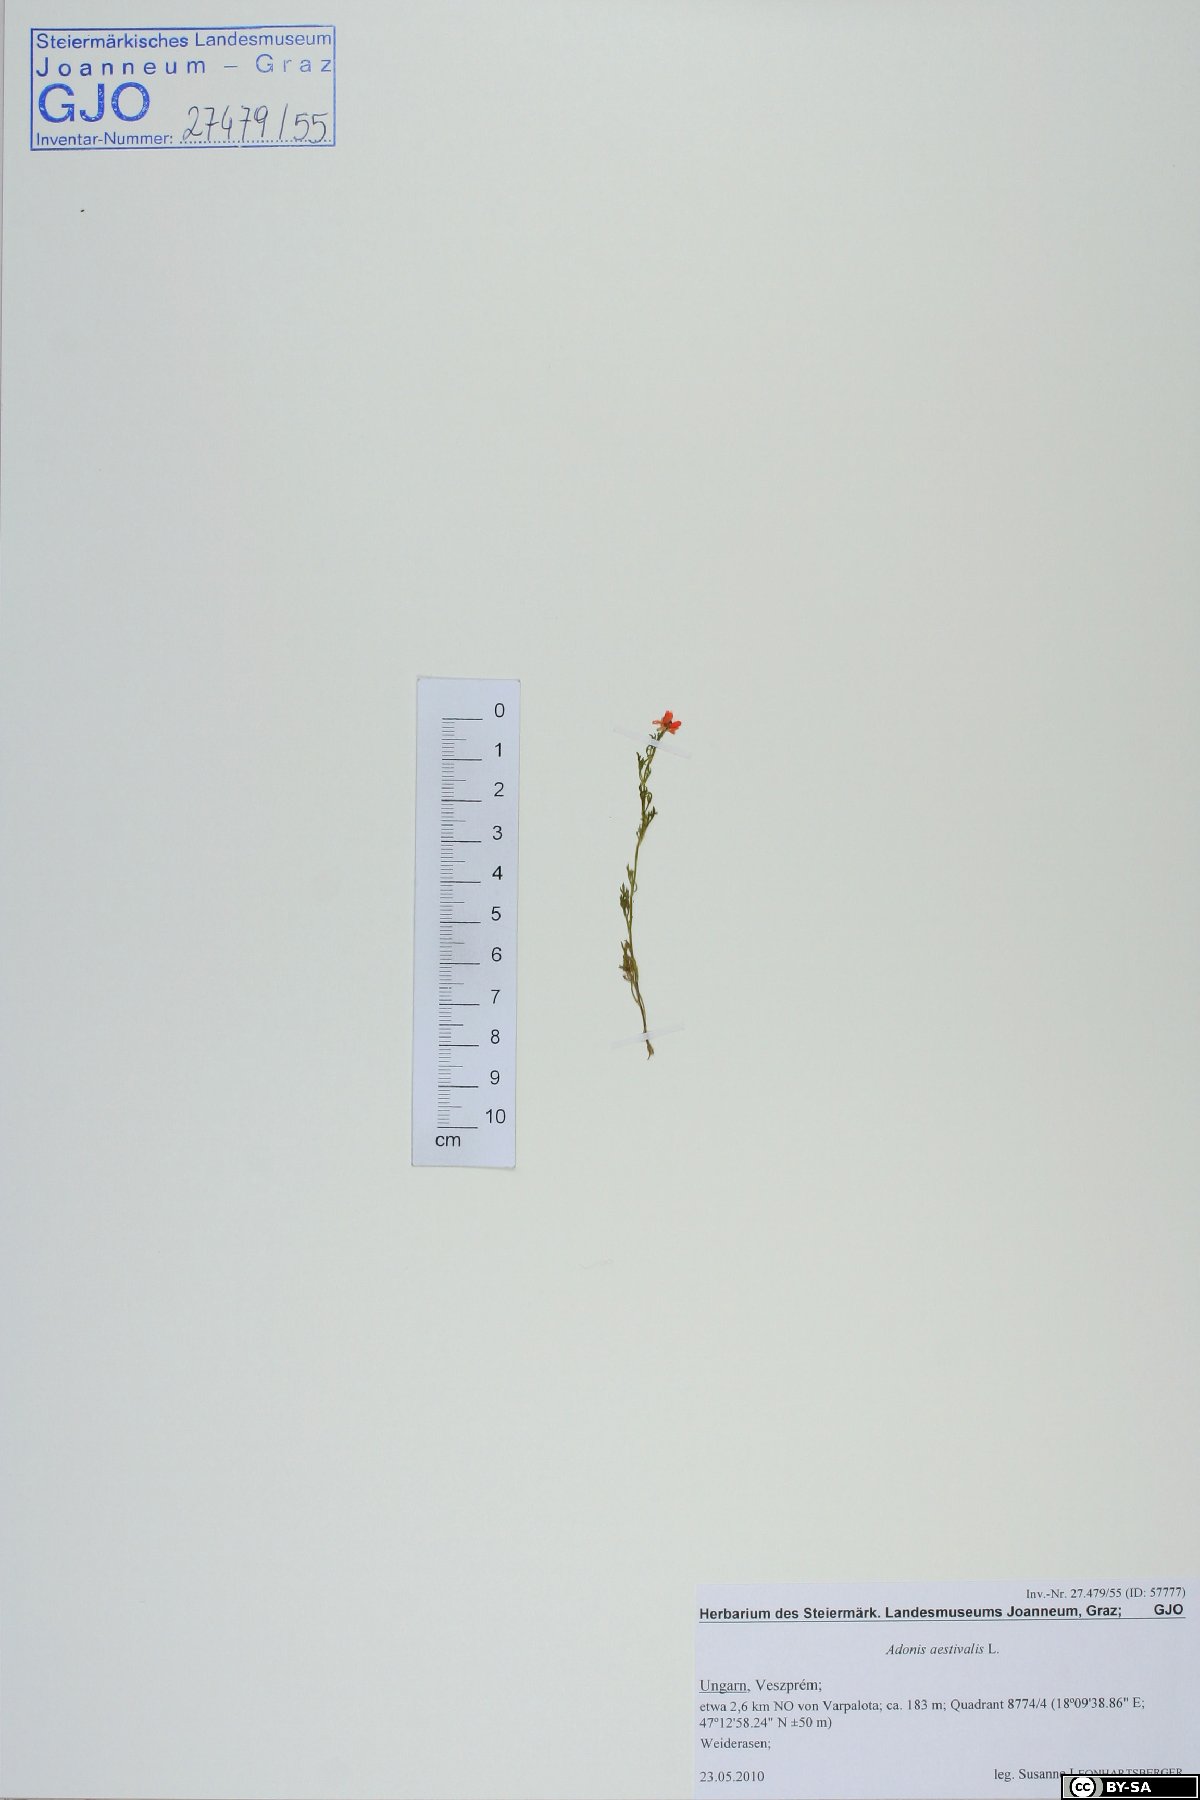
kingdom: Plantae
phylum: Tracheophyta
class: Magnoliopsida
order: Ranunculales
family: Ranunculaceae
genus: Adonis
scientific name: Adonis aestivalis
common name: Summer pheasant's-eye
